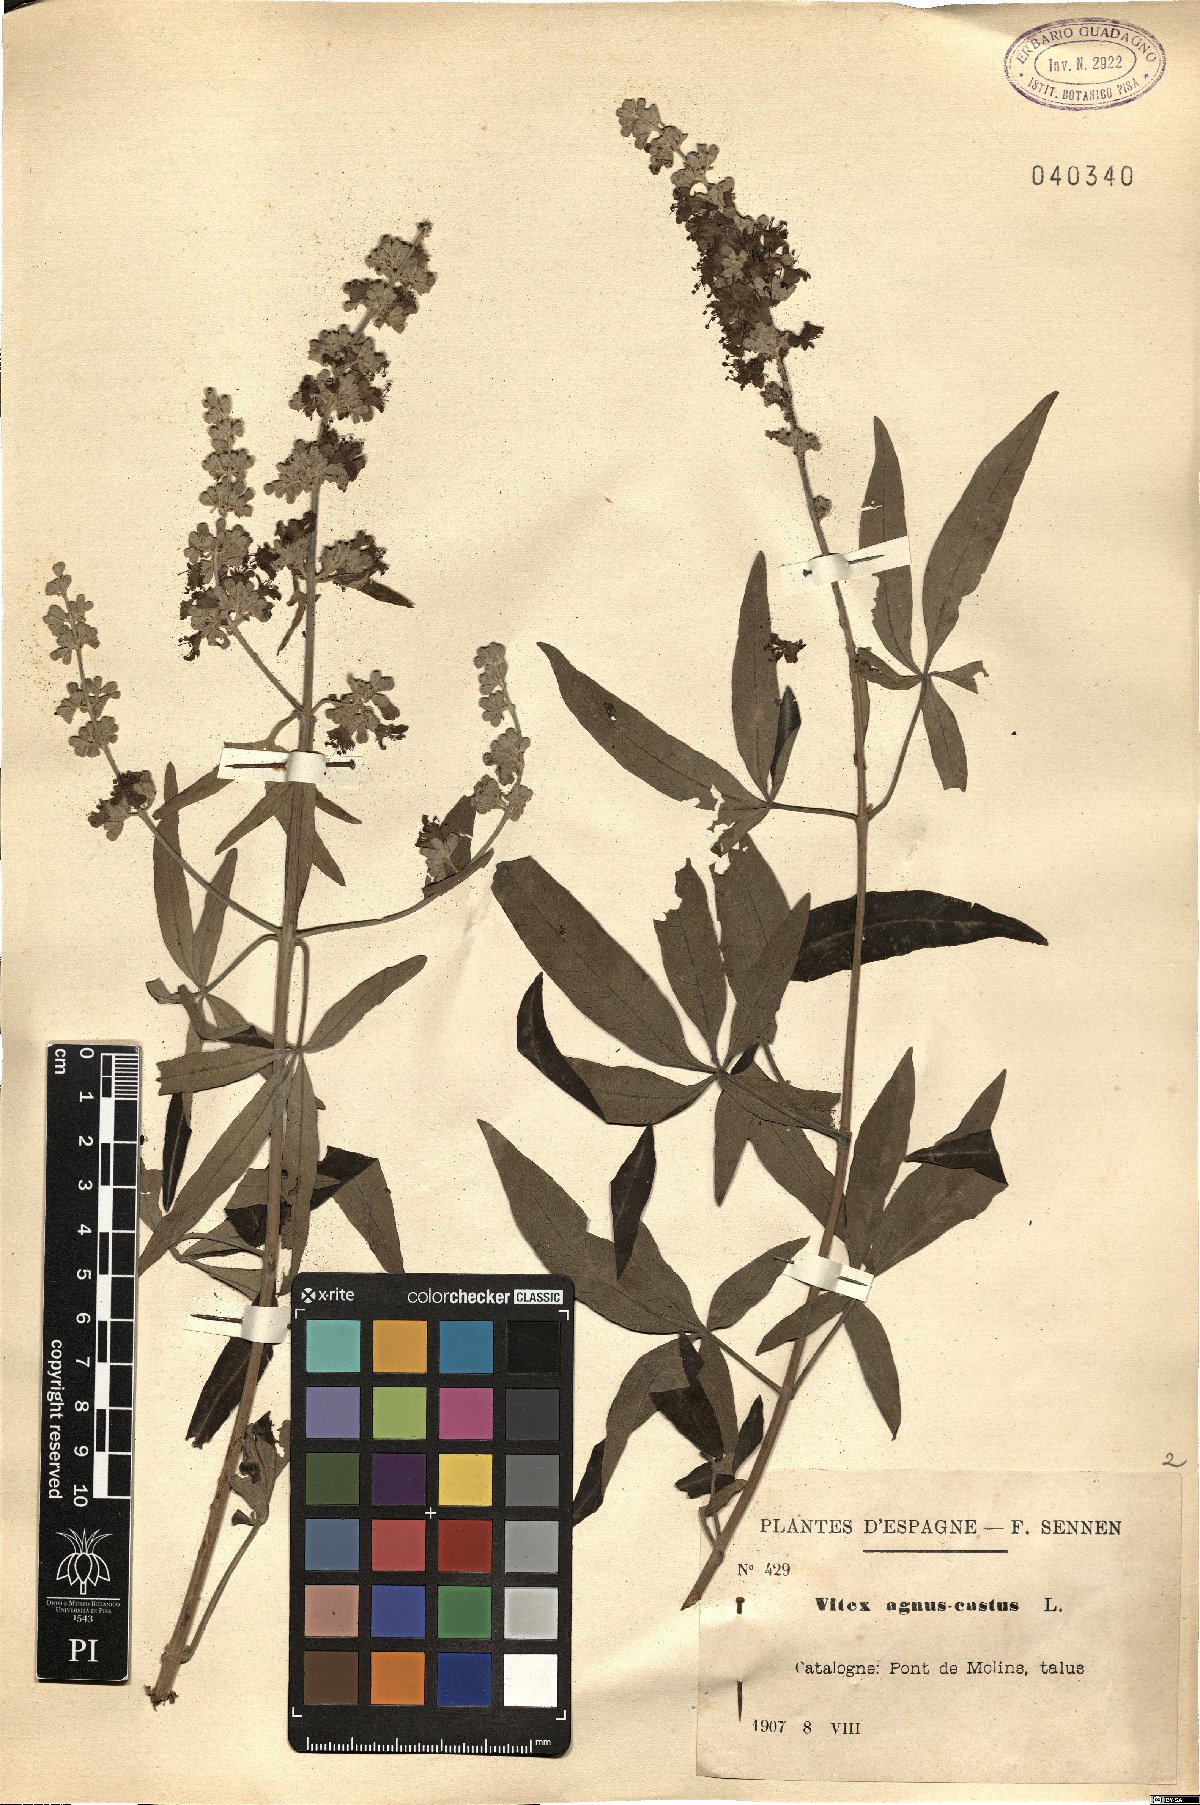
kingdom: Plantae
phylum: Tracheophyta
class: Magnoliopsida
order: Lamiales
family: Lamiaceae
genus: Vitex
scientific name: Vitex agnus-castus
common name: Chasteberry
